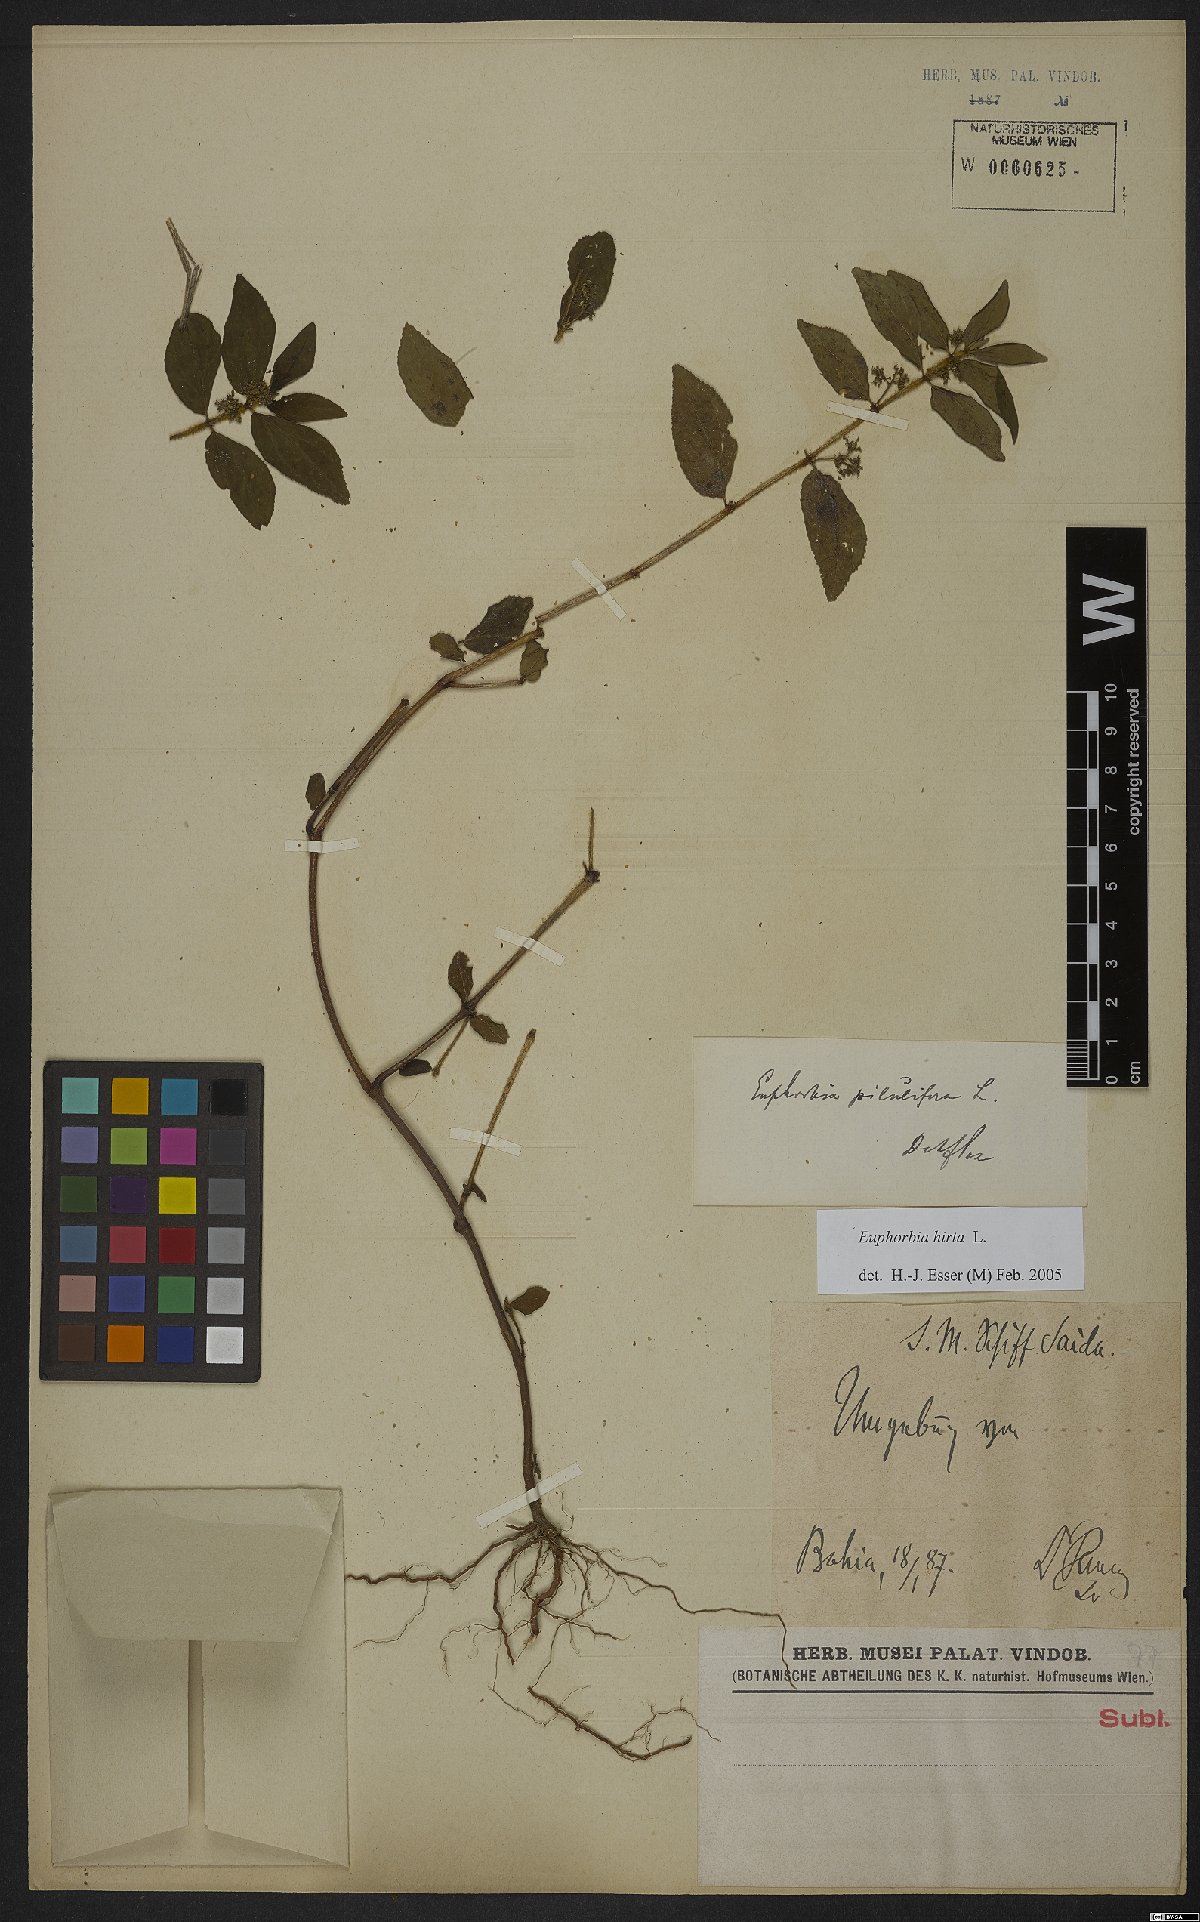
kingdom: Plantae
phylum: Tracheophyta
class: Magnoliopsida
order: Malpighiales
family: Euphorbiaceae
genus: Euphorbia
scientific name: Euphorbia hirta
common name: Pillpod sandmat
